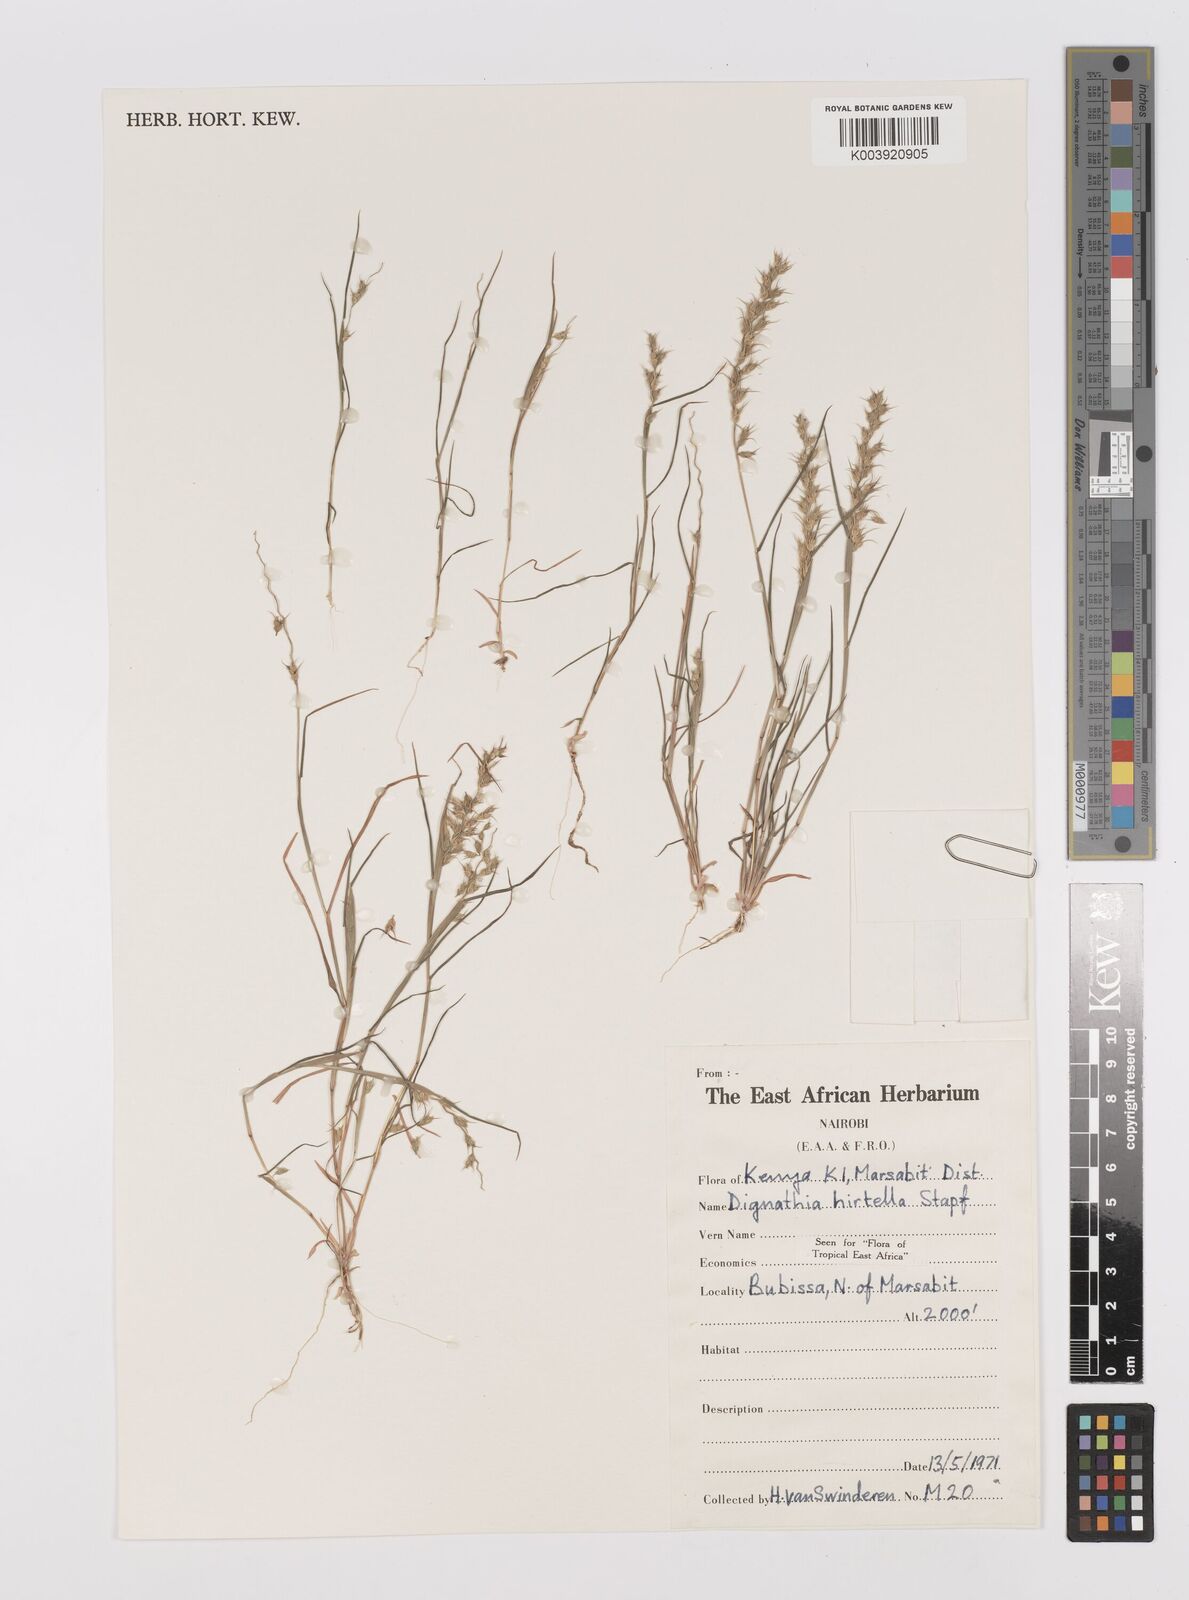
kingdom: Plantae
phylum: Tracheophyta
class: Liliopsida
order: Poales
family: Poaceae
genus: Dignathia
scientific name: Dignathia hirtella
